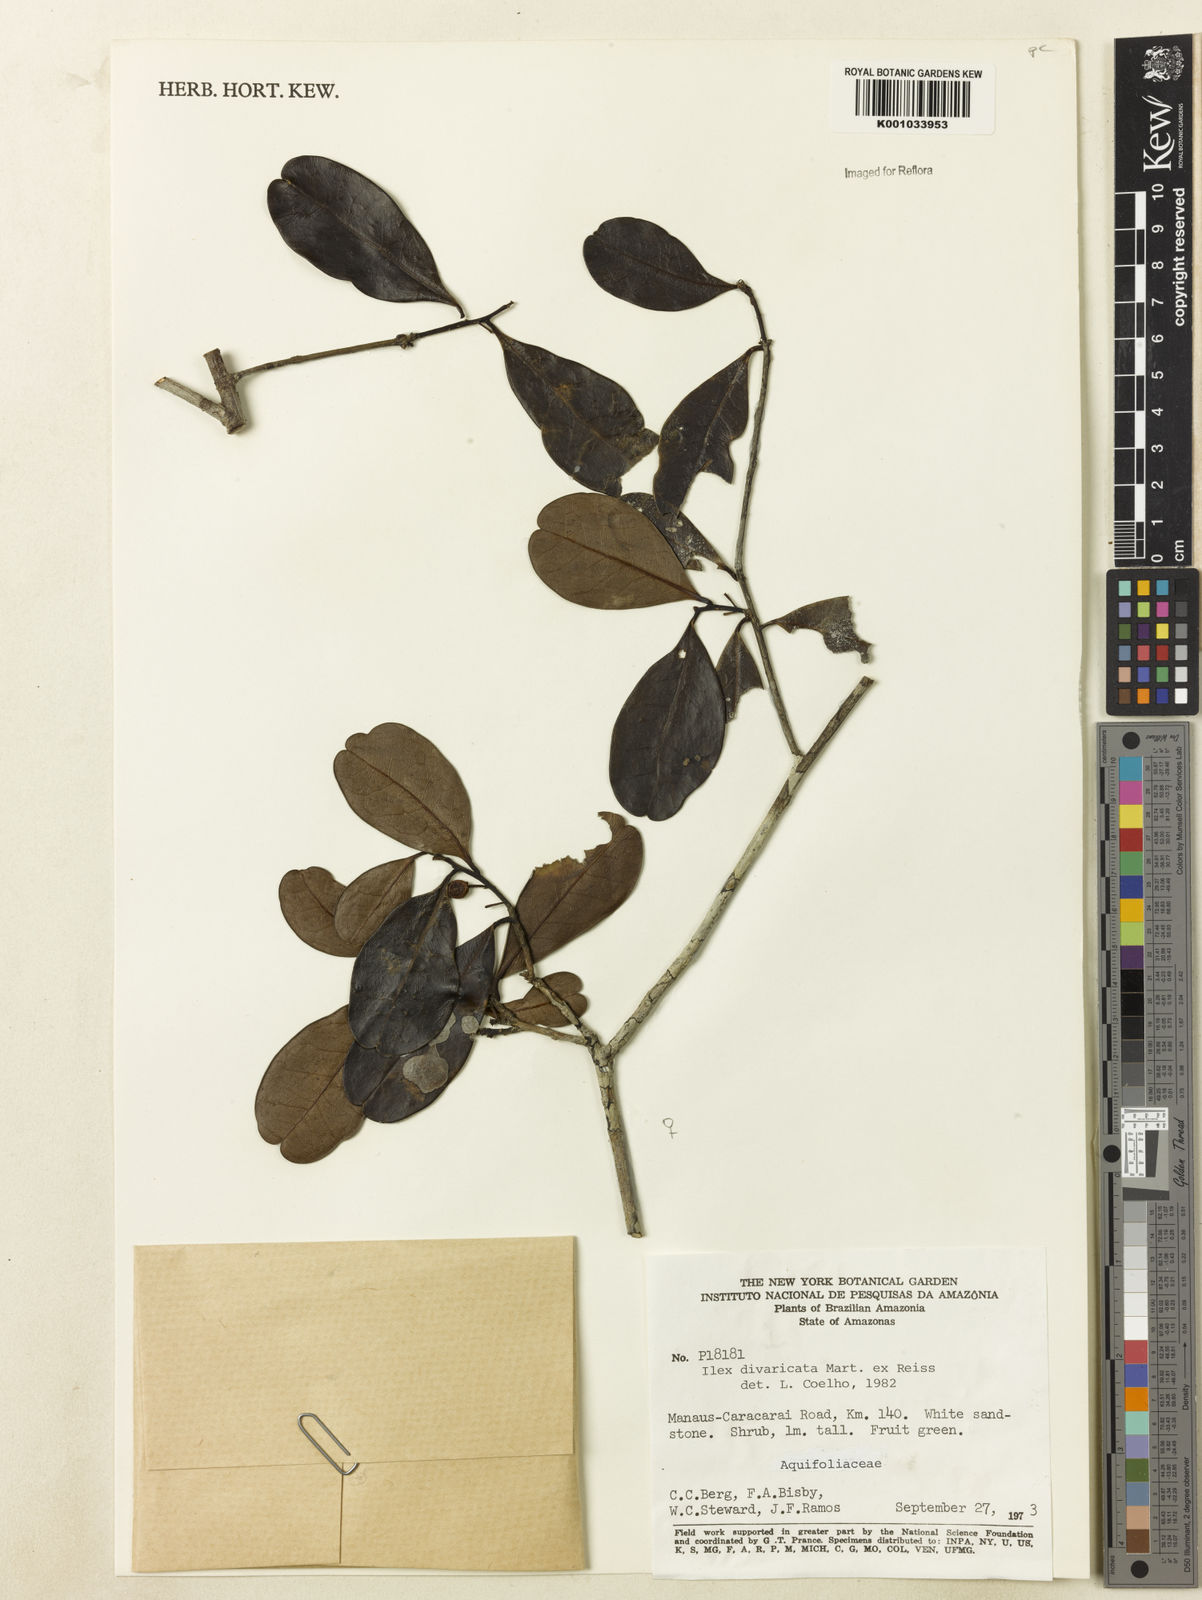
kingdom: Plantae
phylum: Tracheophyta
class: Magnoliopsida
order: Aquifoliales
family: Aquifoliaceae
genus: Ilex
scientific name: Ilex divaricata
